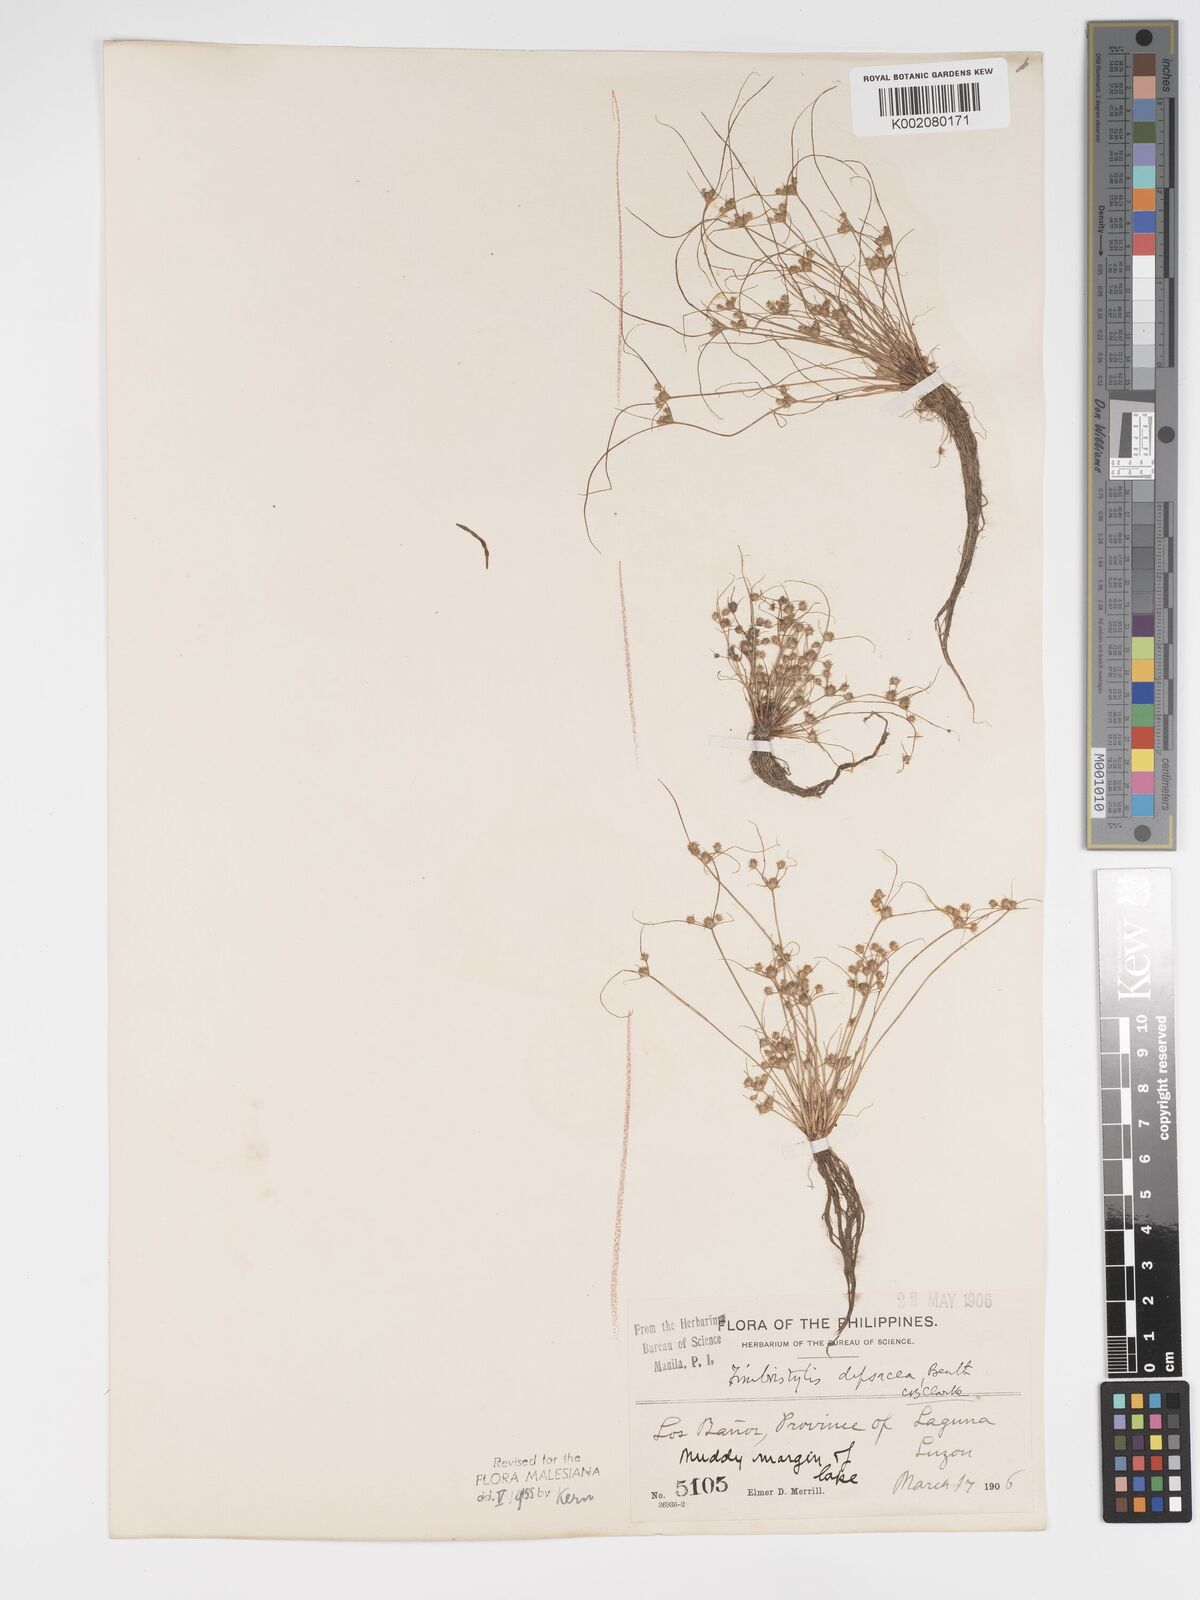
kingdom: Plantae
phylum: Tracheophyta
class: Liliopsida
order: Poales
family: Cyperaceae
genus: Fimbristylis
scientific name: Fimbristylis dipsacea
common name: Harper's fimbristylis
